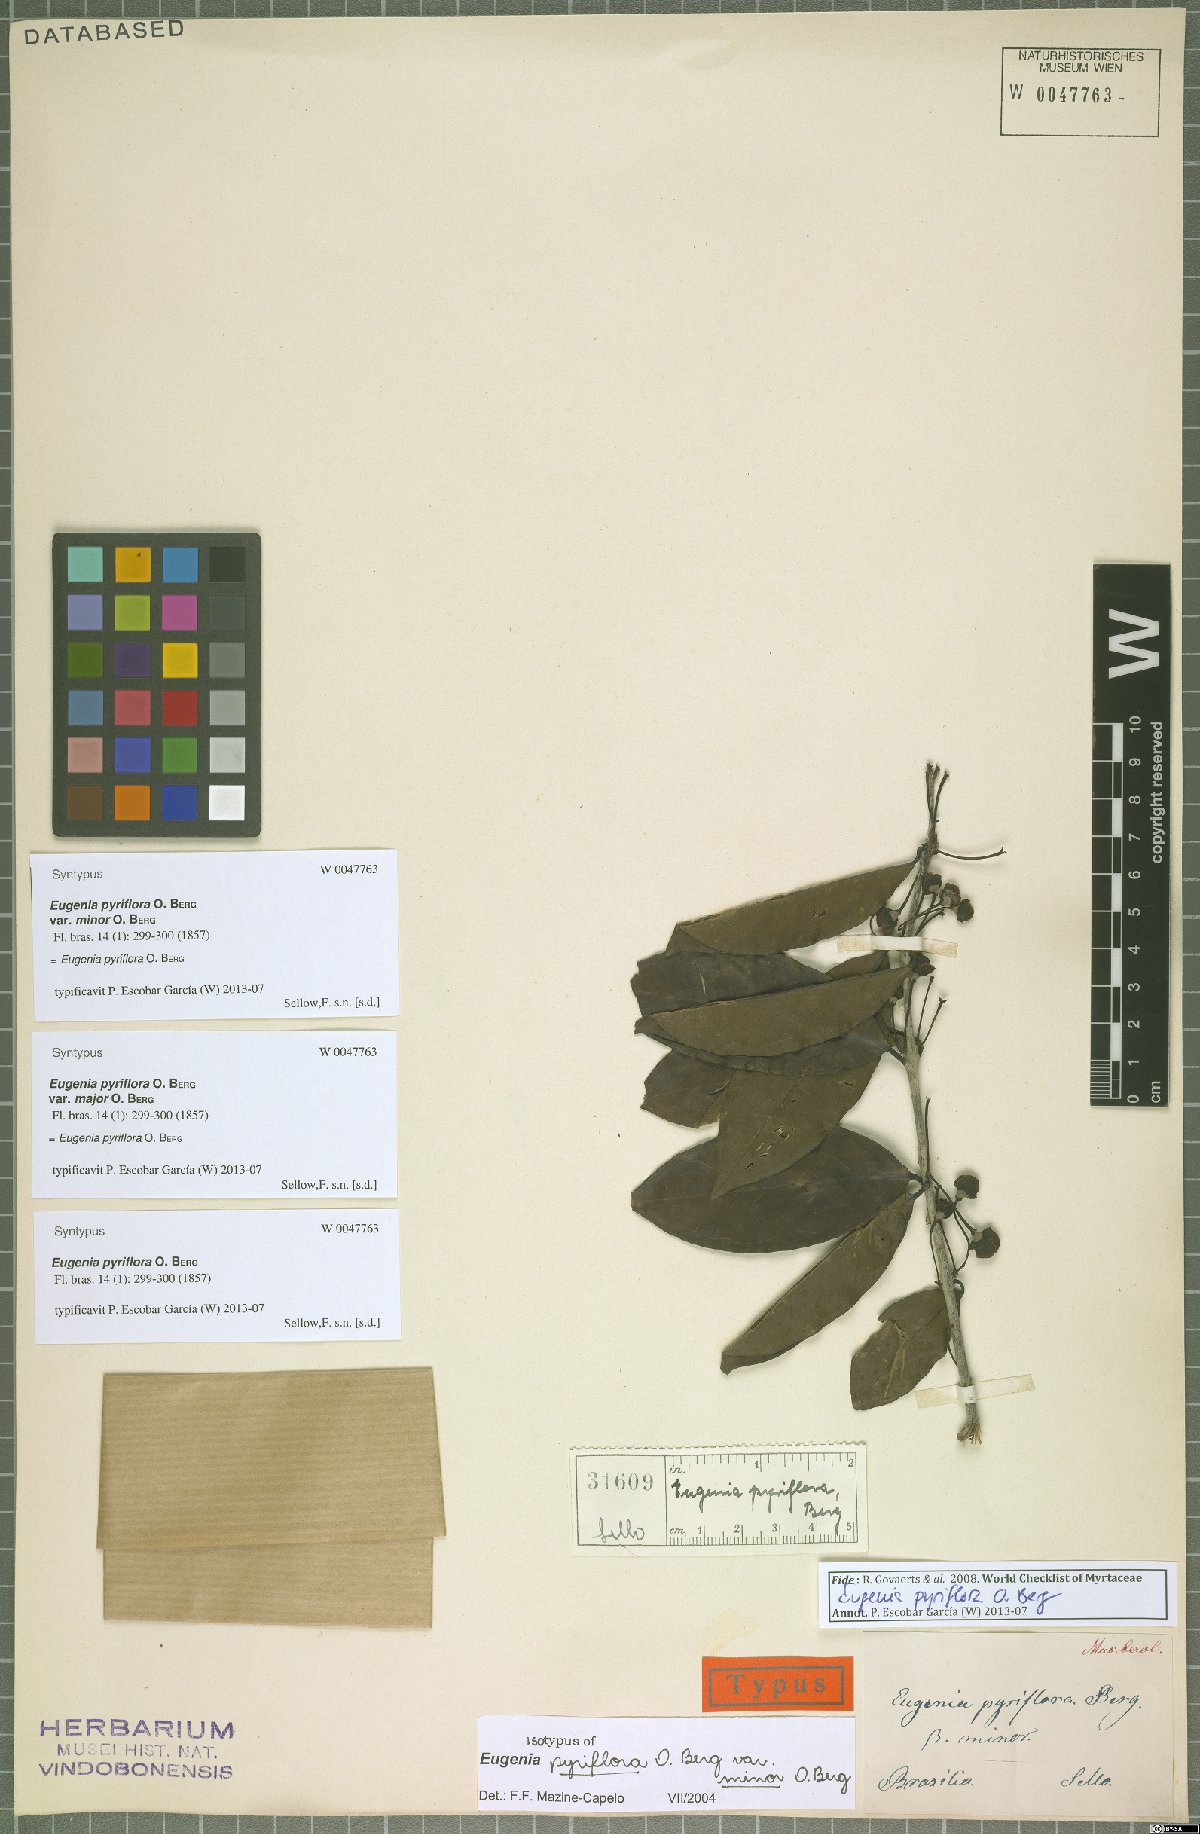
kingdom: Plantae
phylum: Tracheophyta
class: Magnoliopsida
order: Myrtales
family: Myrtaceae
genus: Eugenia
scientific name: Eugenia pyriflora
